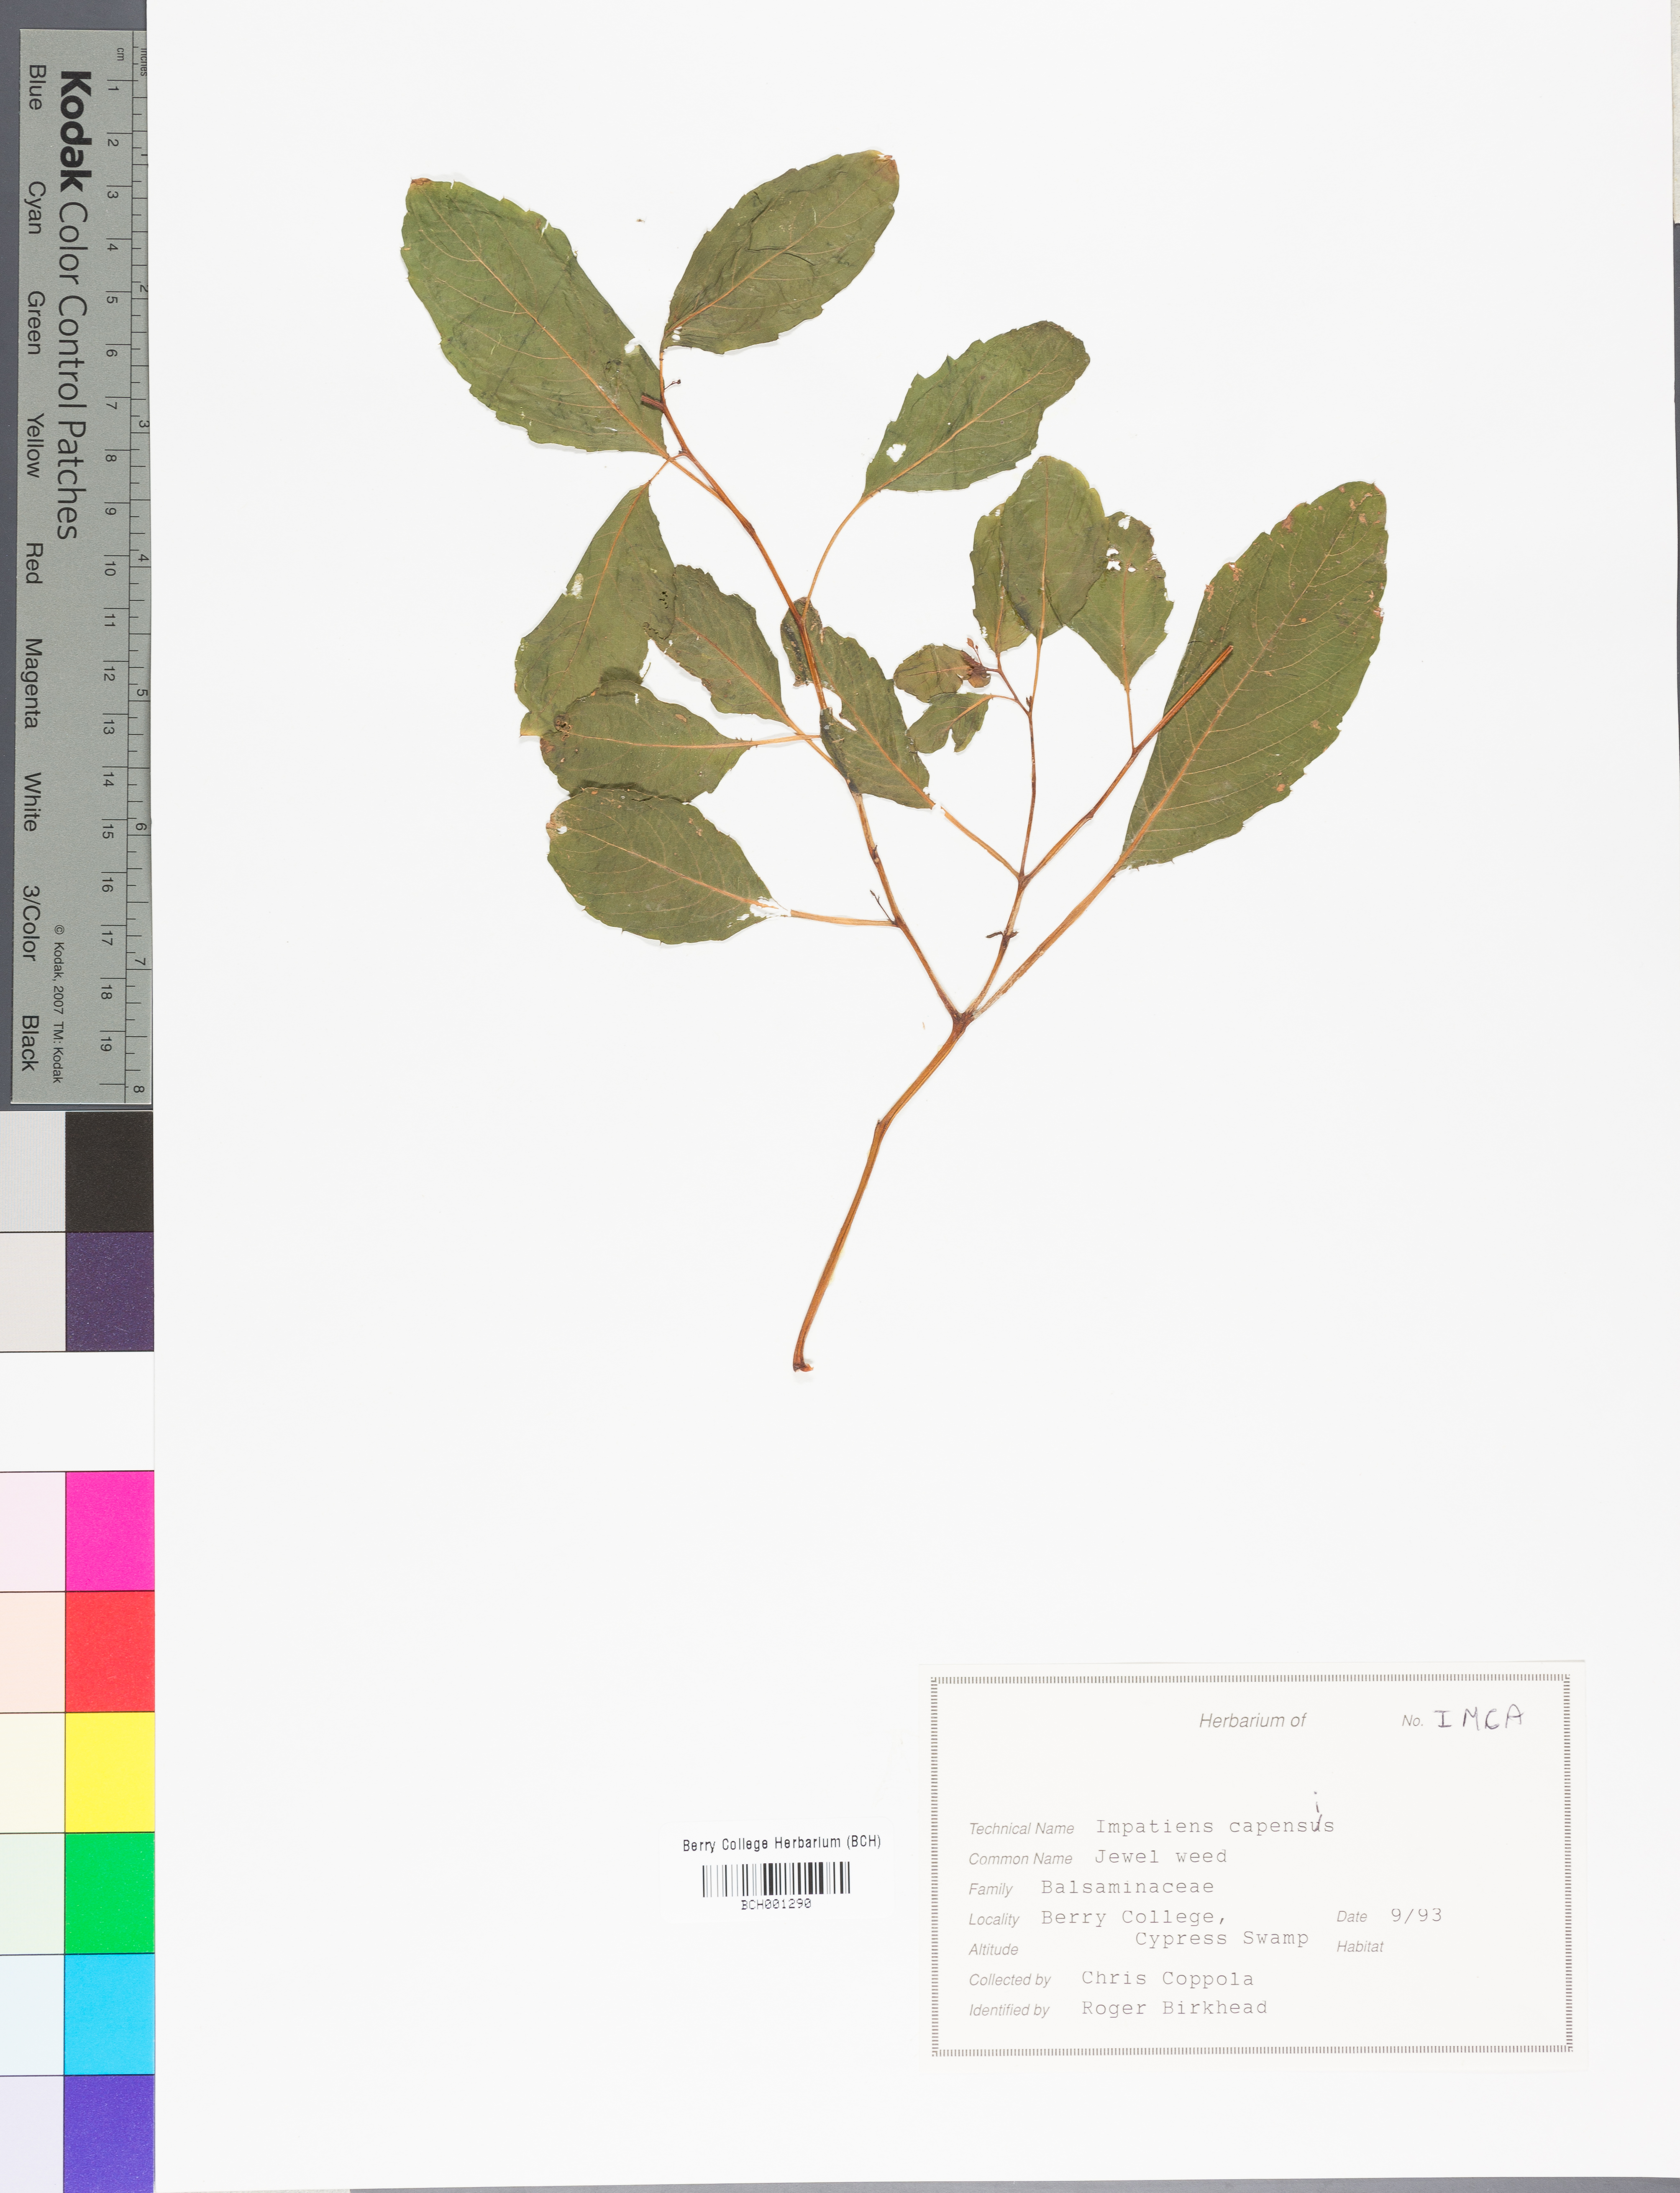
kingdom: Plantae
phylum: Tracheophyta
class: Magnoliopsida
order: Ericales
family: Balsaminaceae
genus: Impatiens
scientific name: Impatiens capensis
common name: Orange balsam
